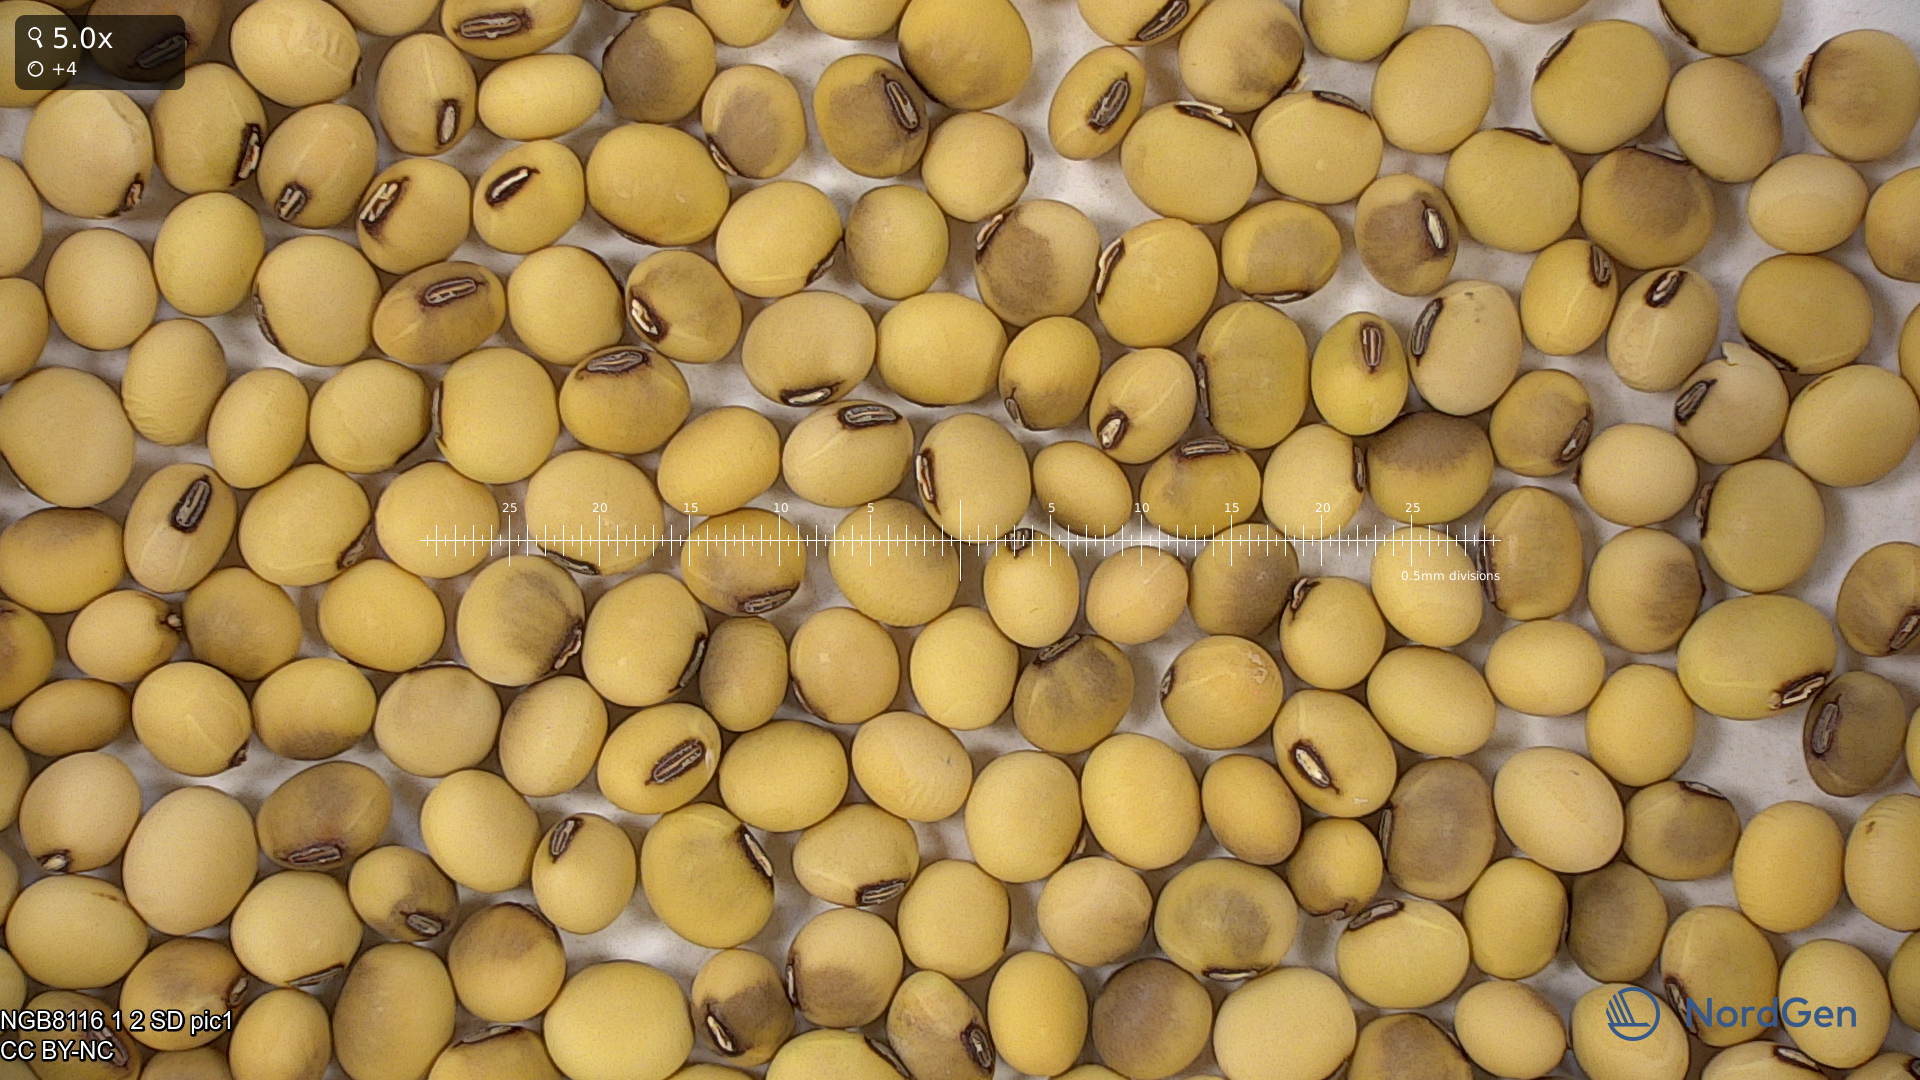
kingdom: Plantae
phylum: Tracheophyta
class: Magnoliopsida
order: Fabales
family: Fabaceae
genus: Glycine
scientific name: Glycine max
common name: Soya-bean
